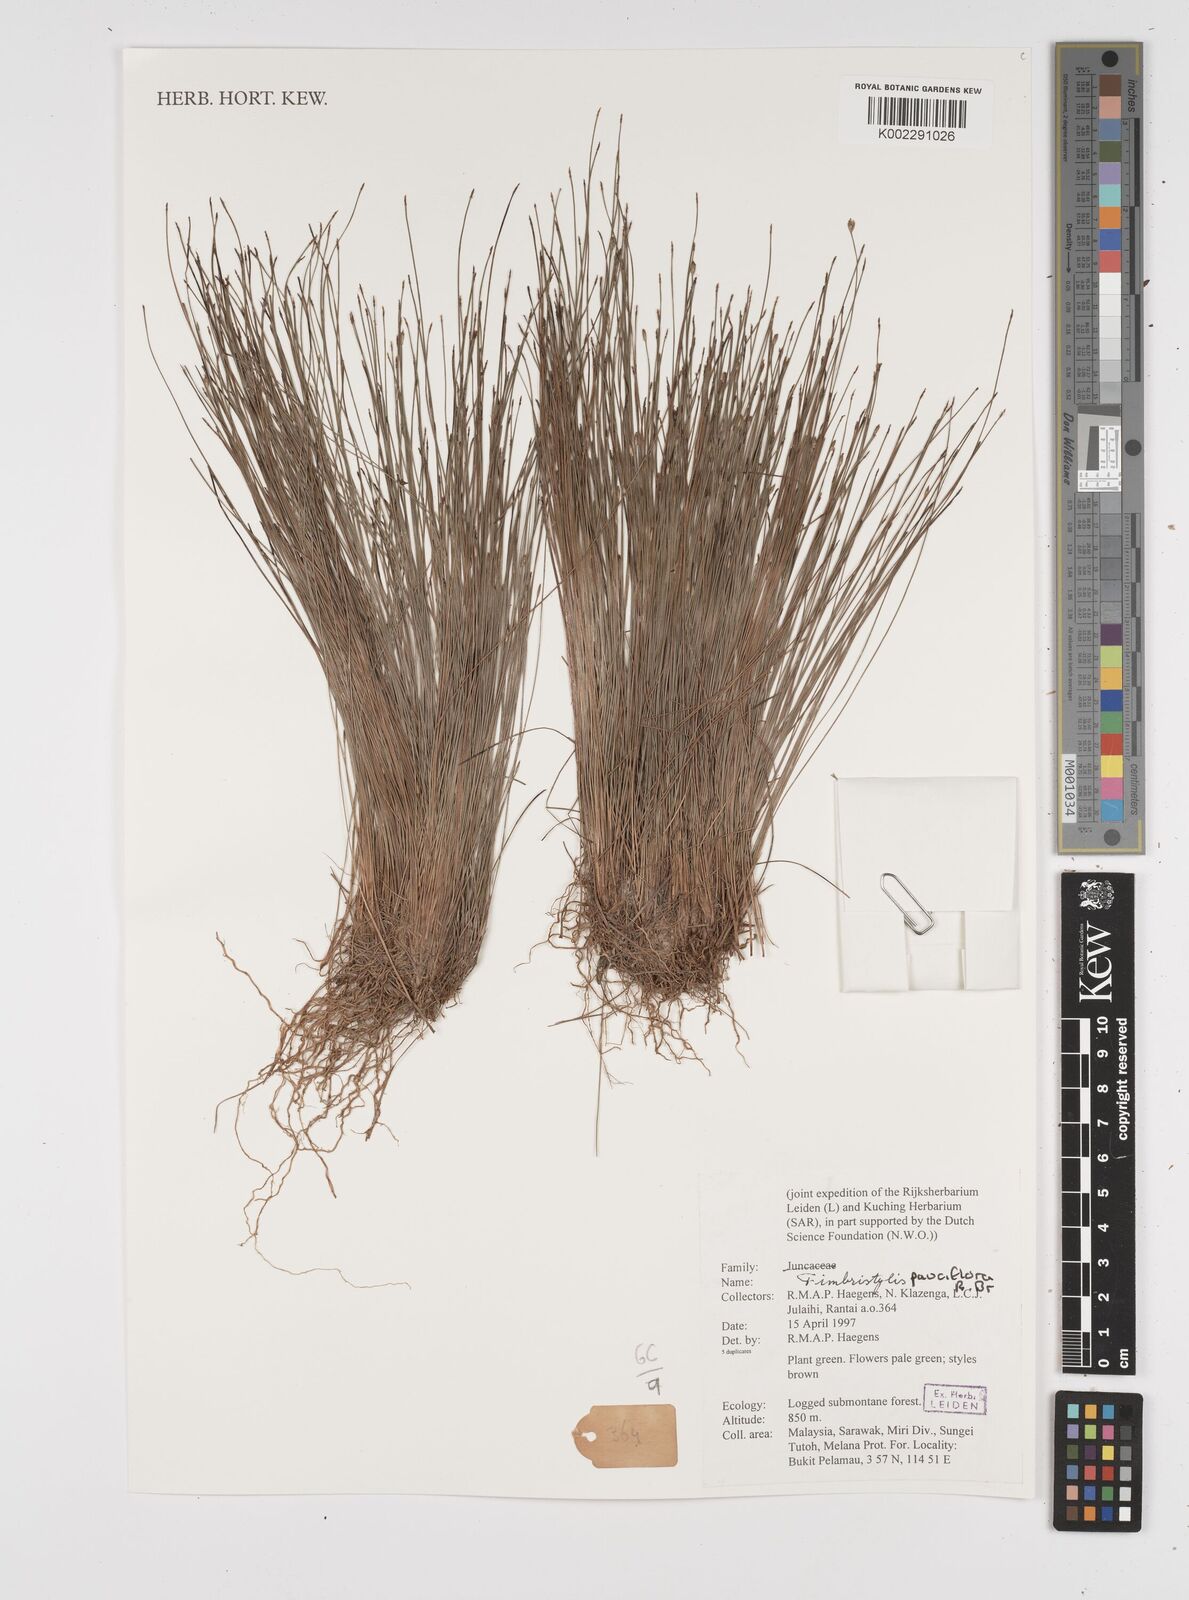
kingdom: Plantae
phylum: Tracheophyta
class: Liliopsida
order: Poales
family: Cyperaceae
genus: Fimbristylis
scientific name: Fimbristylis pauciflora
